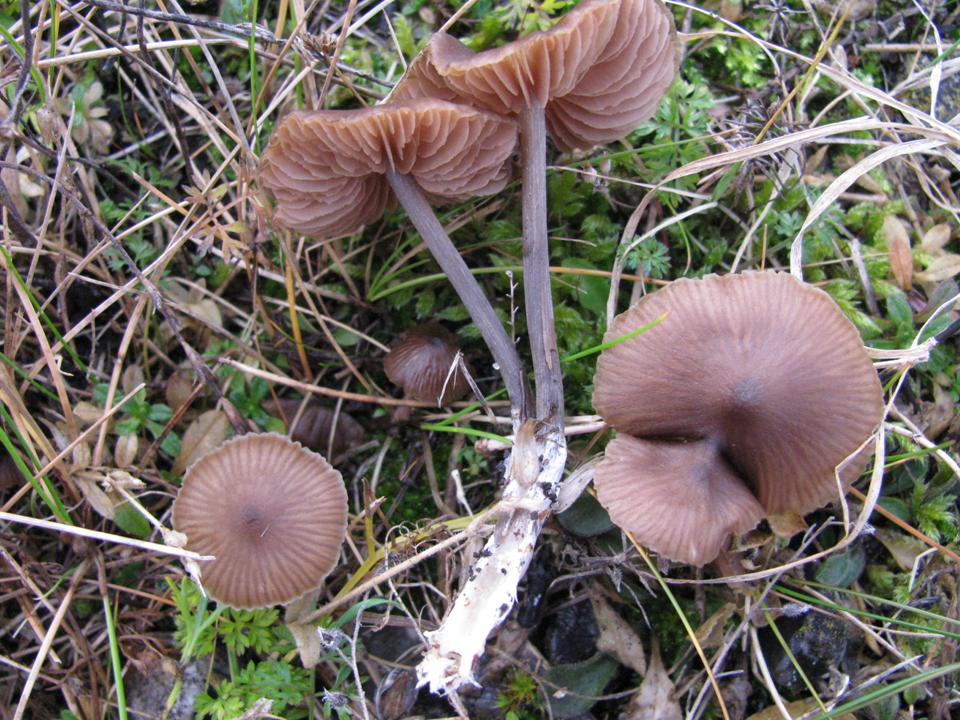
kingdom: Fungi
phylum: Basidiomycota
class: Agaricomycetes
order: Agaricales
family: Entolomataceae
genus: Entoloma
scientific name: Entoloma clandestinum
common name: tykbladet rødblad
